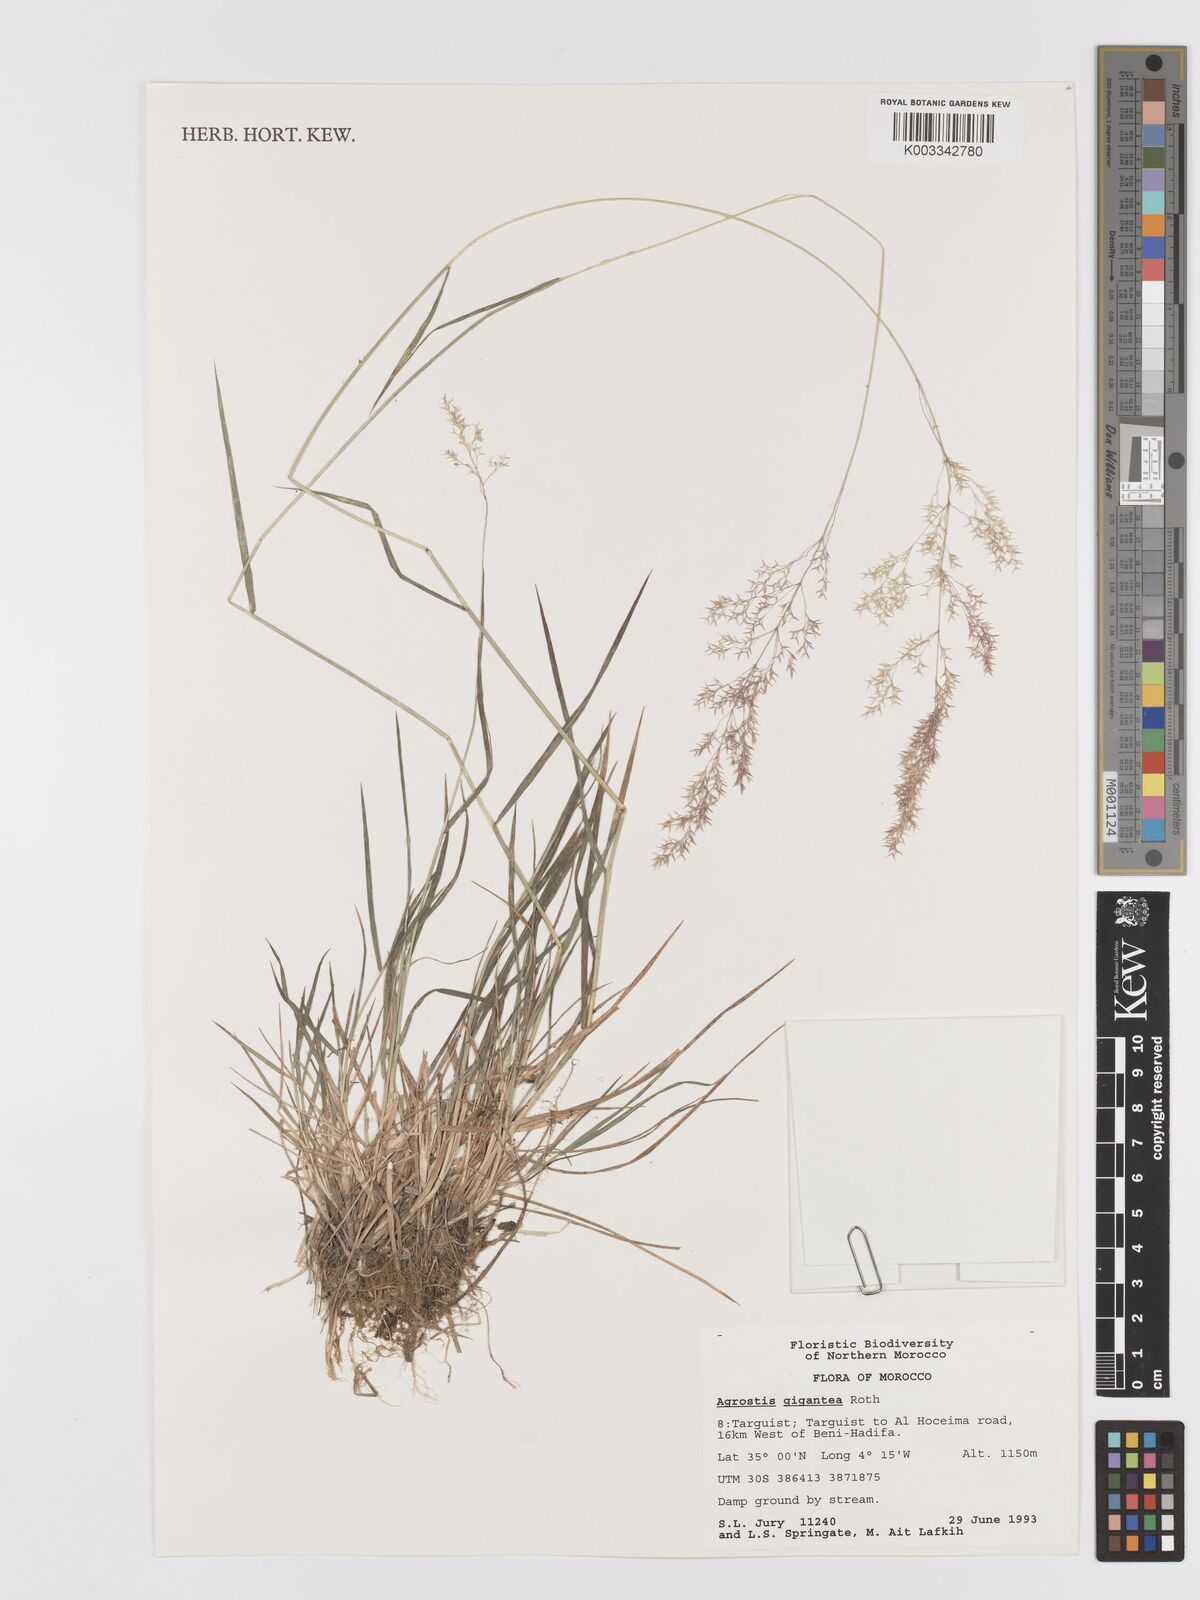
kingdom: Plantae
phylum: Tracheophyta
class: Liliopsida
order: Poales
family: Poaceae
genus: Agrostis
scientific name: Agrostis gigantea
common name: Black bent
